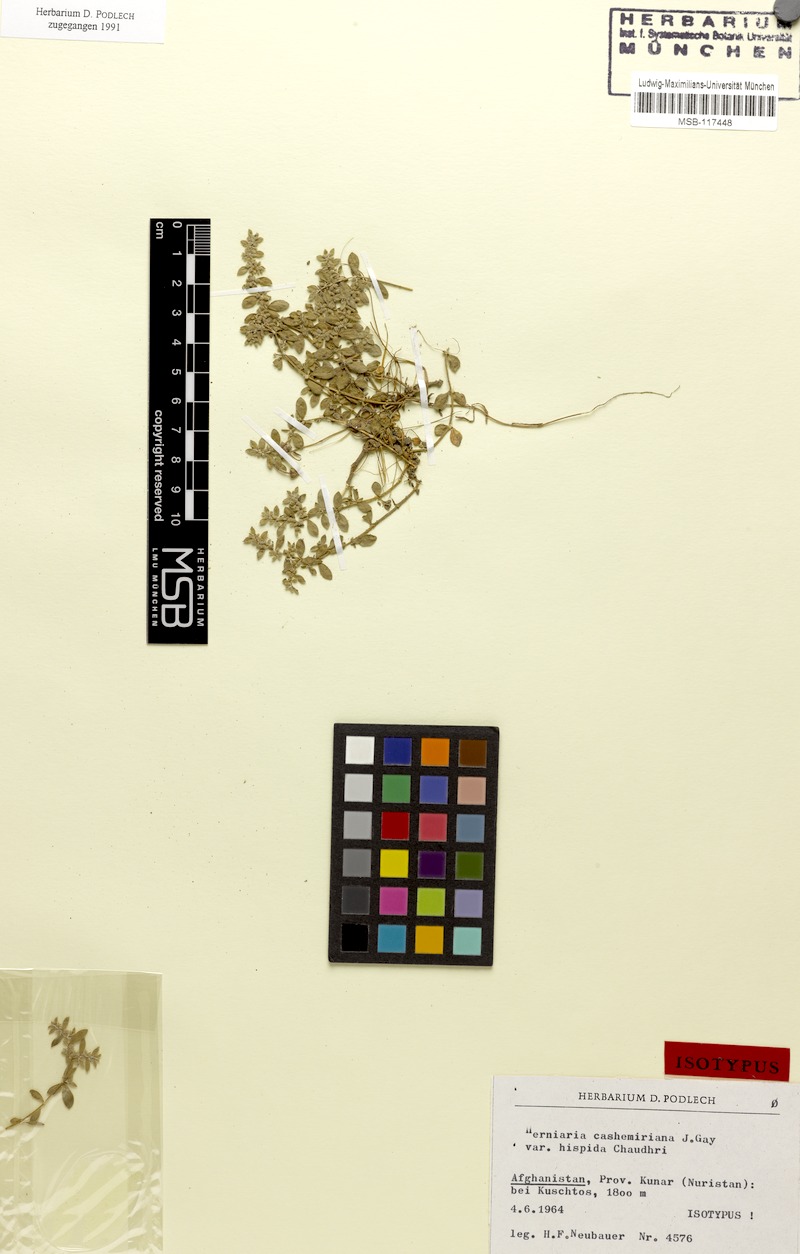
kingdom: Plantae
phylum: Tracheophyta
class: Magnoliopsida
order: Caryophyllales
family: Caryophyllaceae
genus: Herniaria
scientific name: Herniaria cachemiriana
